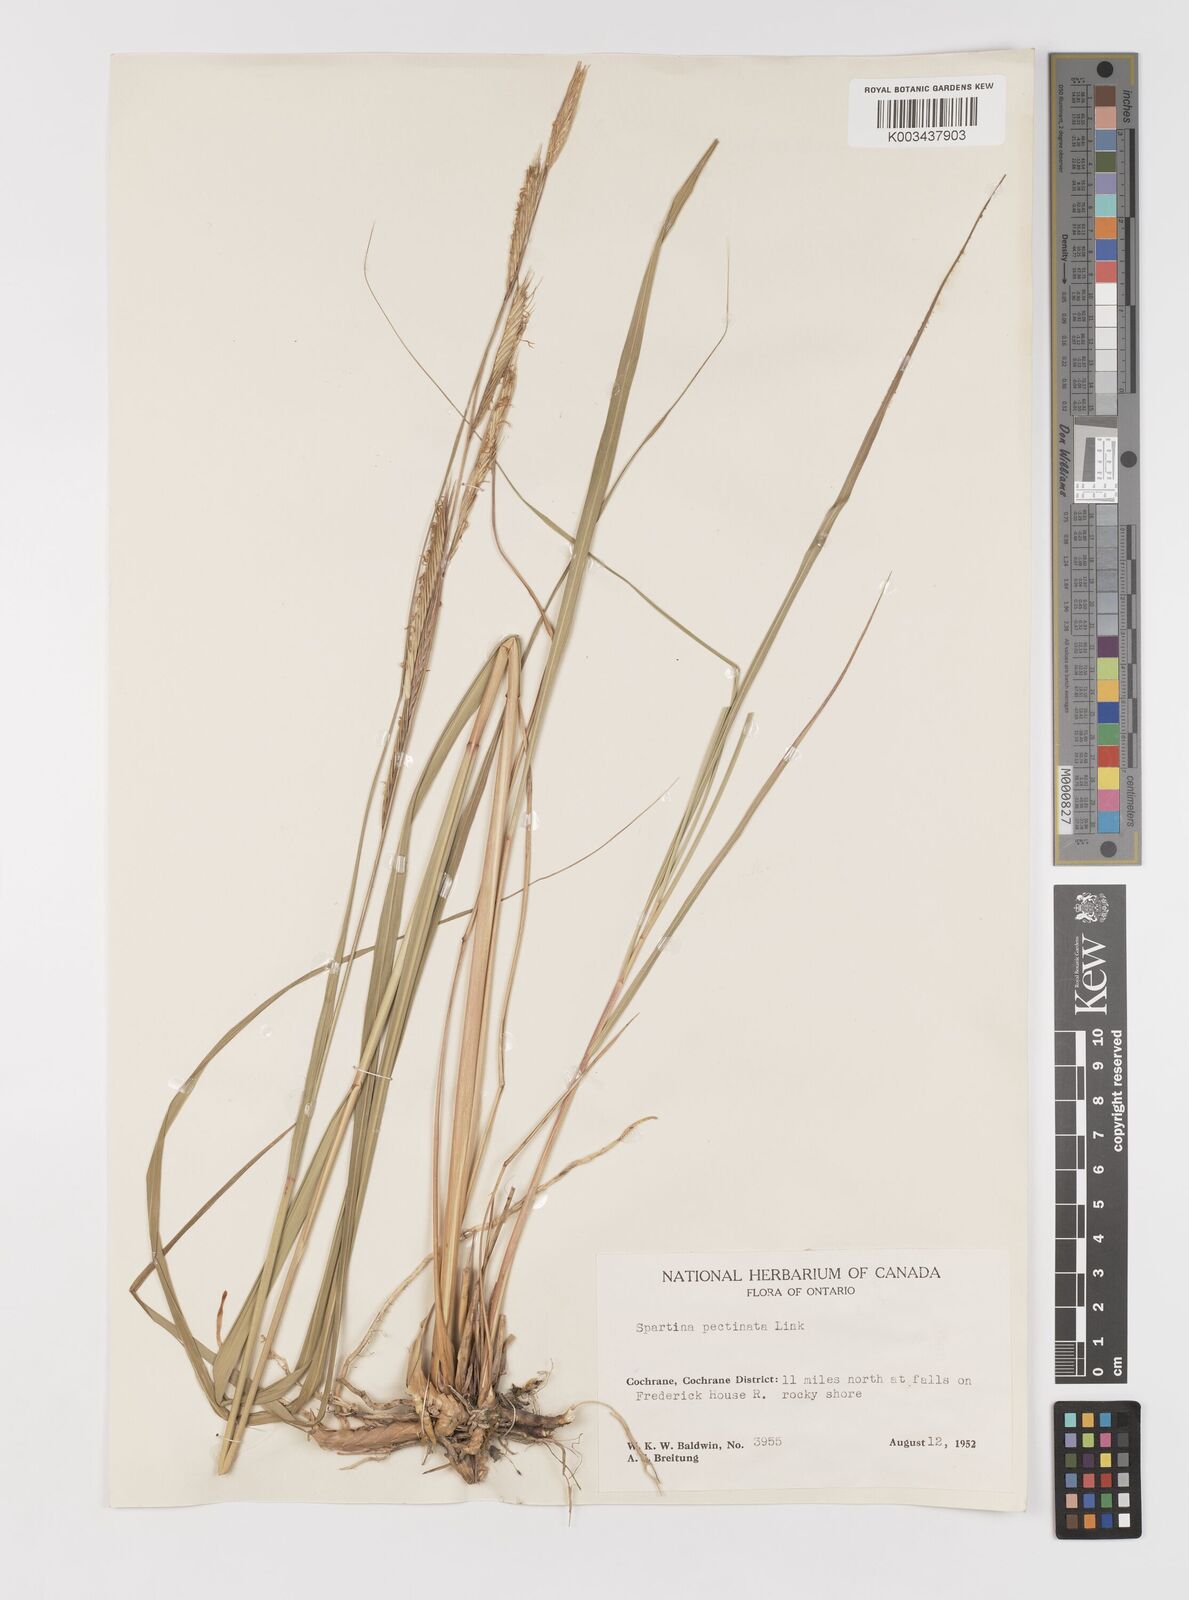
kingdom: Plantae
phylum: Tracheophyta
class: Liliopsida
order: Poales
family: Poaceae
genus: Sporobolus
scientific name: Sporobolus michauxianus
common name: Freshwater cordgrass
